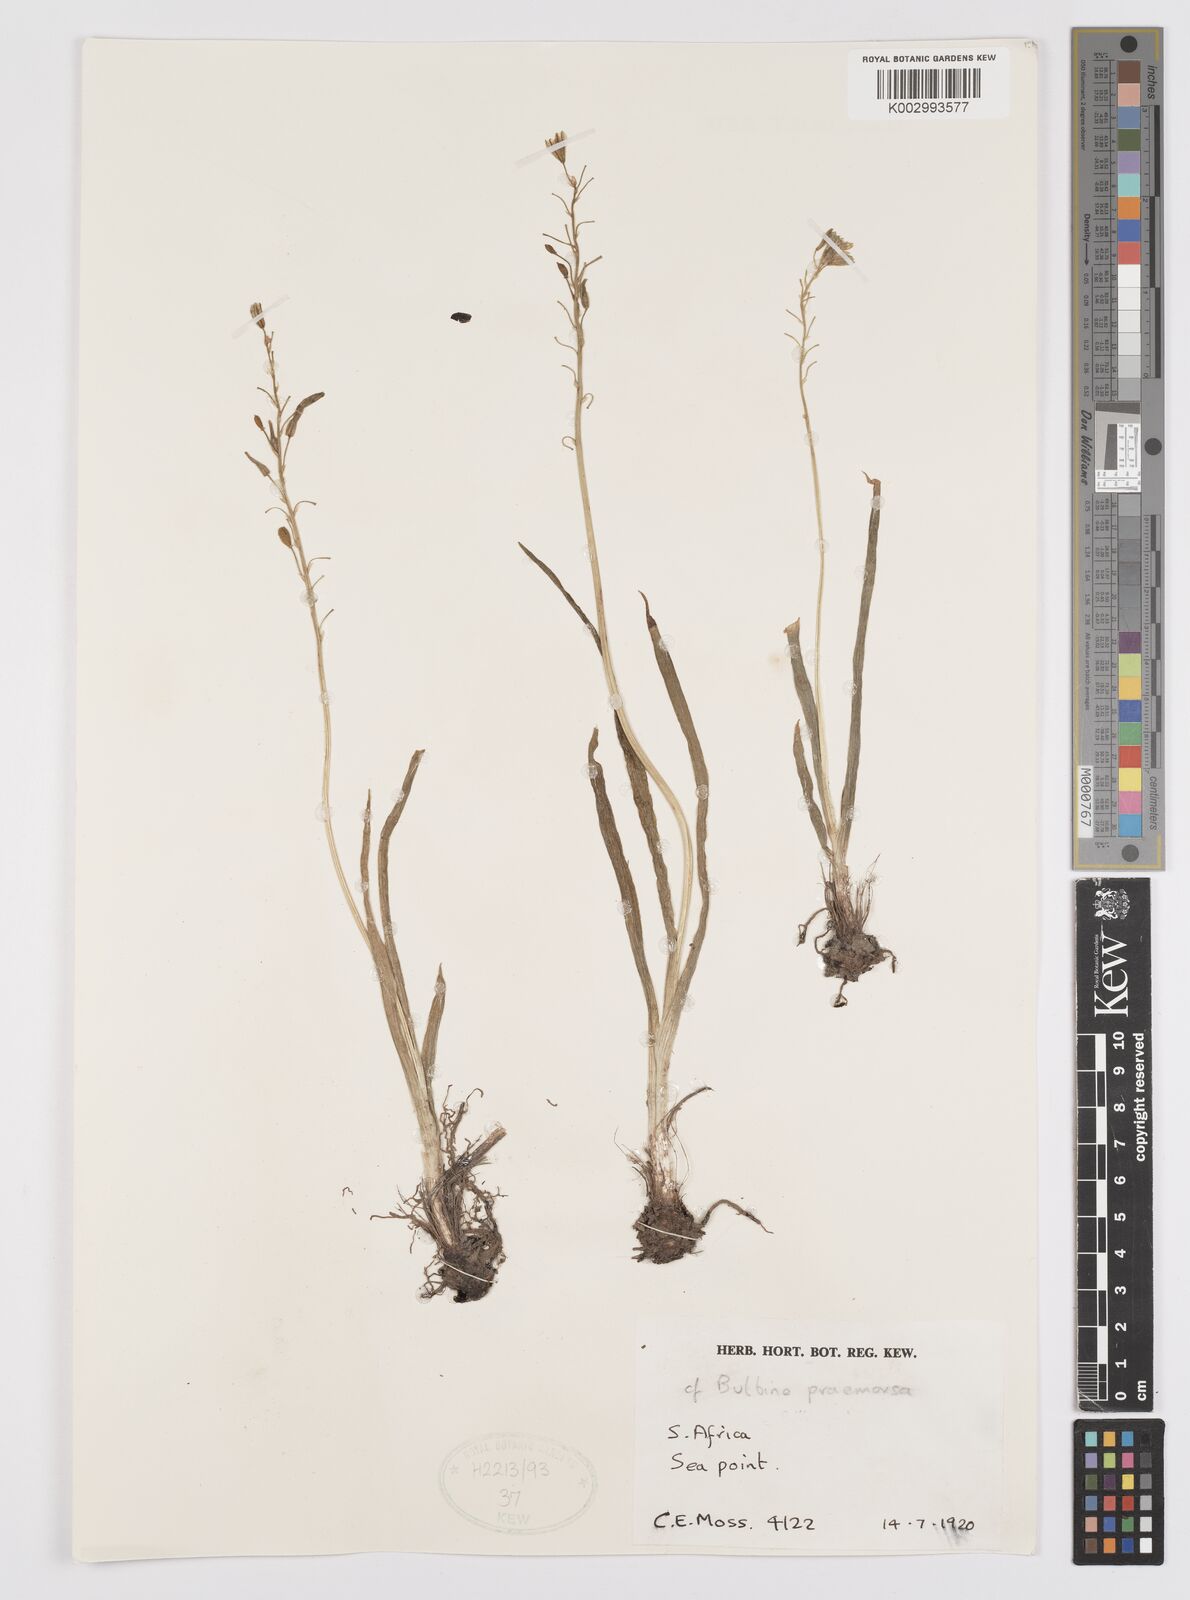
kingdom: Plantae
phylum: Tracheophyta
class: Liliopsida
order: Asparagales
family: Asphodelaceae
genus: Bulbine
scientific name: Bulbine praemorsa
